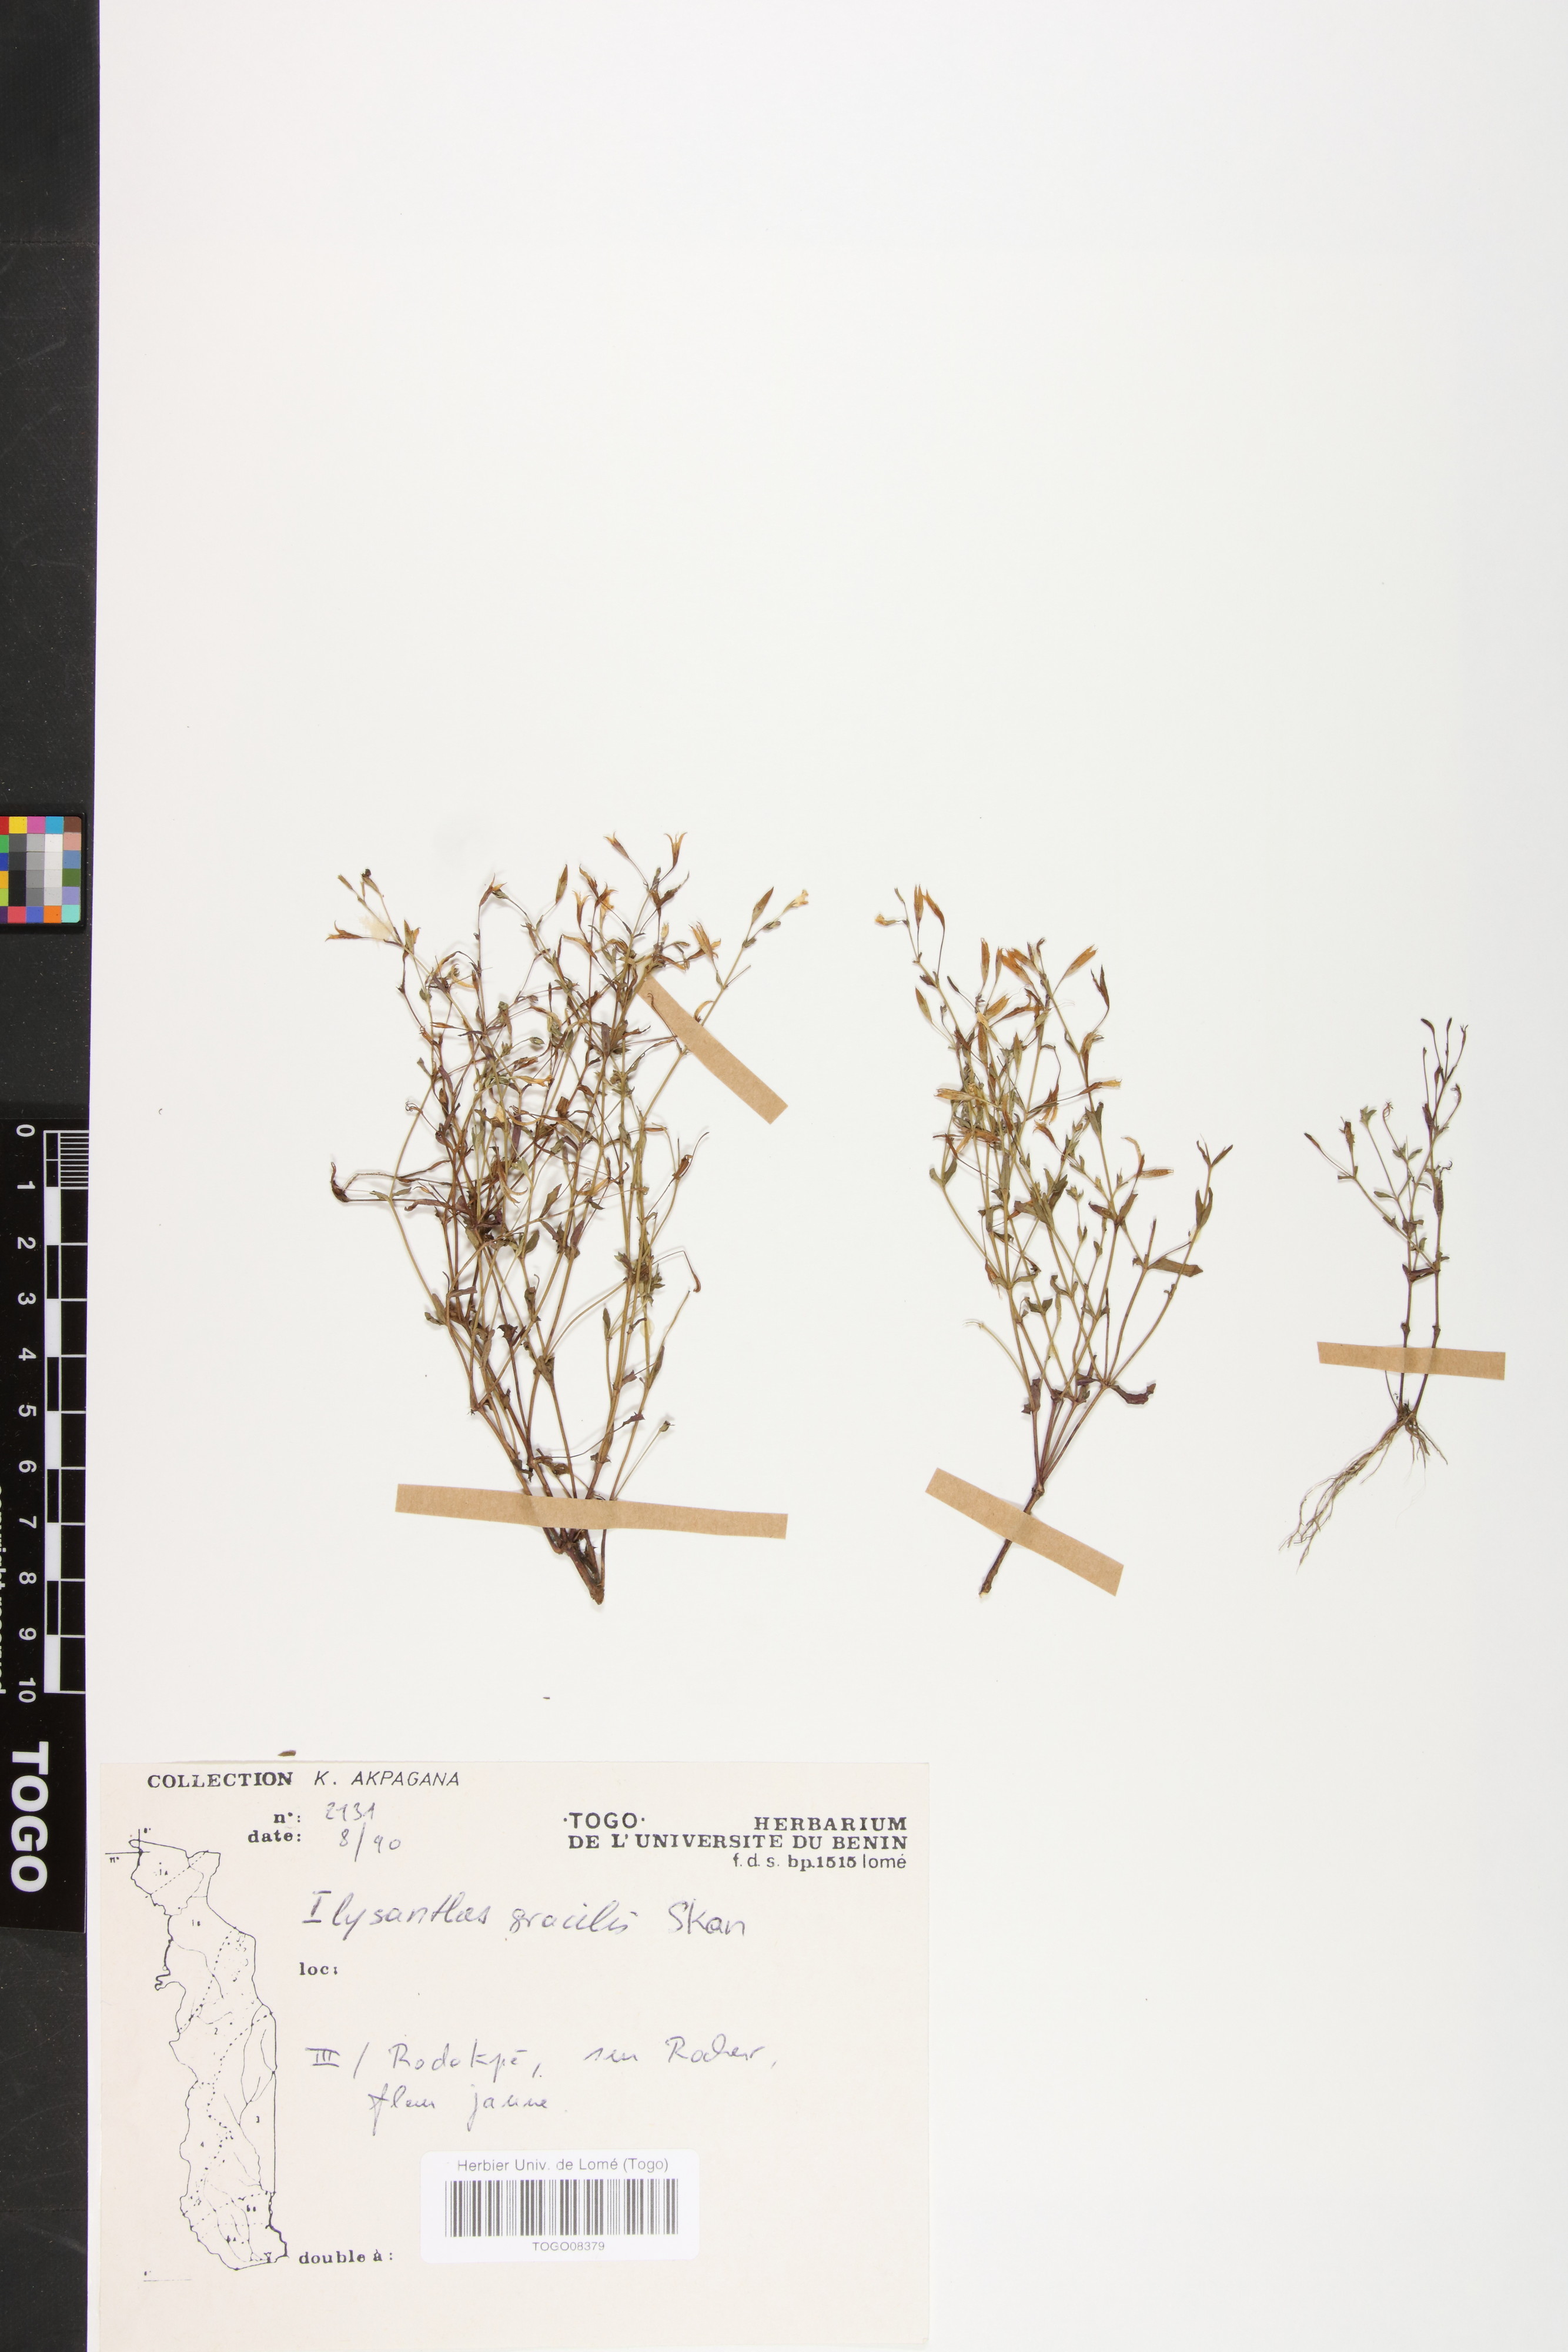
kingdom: Plantae
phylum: Tracheophyta
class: Magnoliopsida
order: Lamiales
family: Linderniaceae
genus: Linderniella
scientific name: Linderniella gracilis
